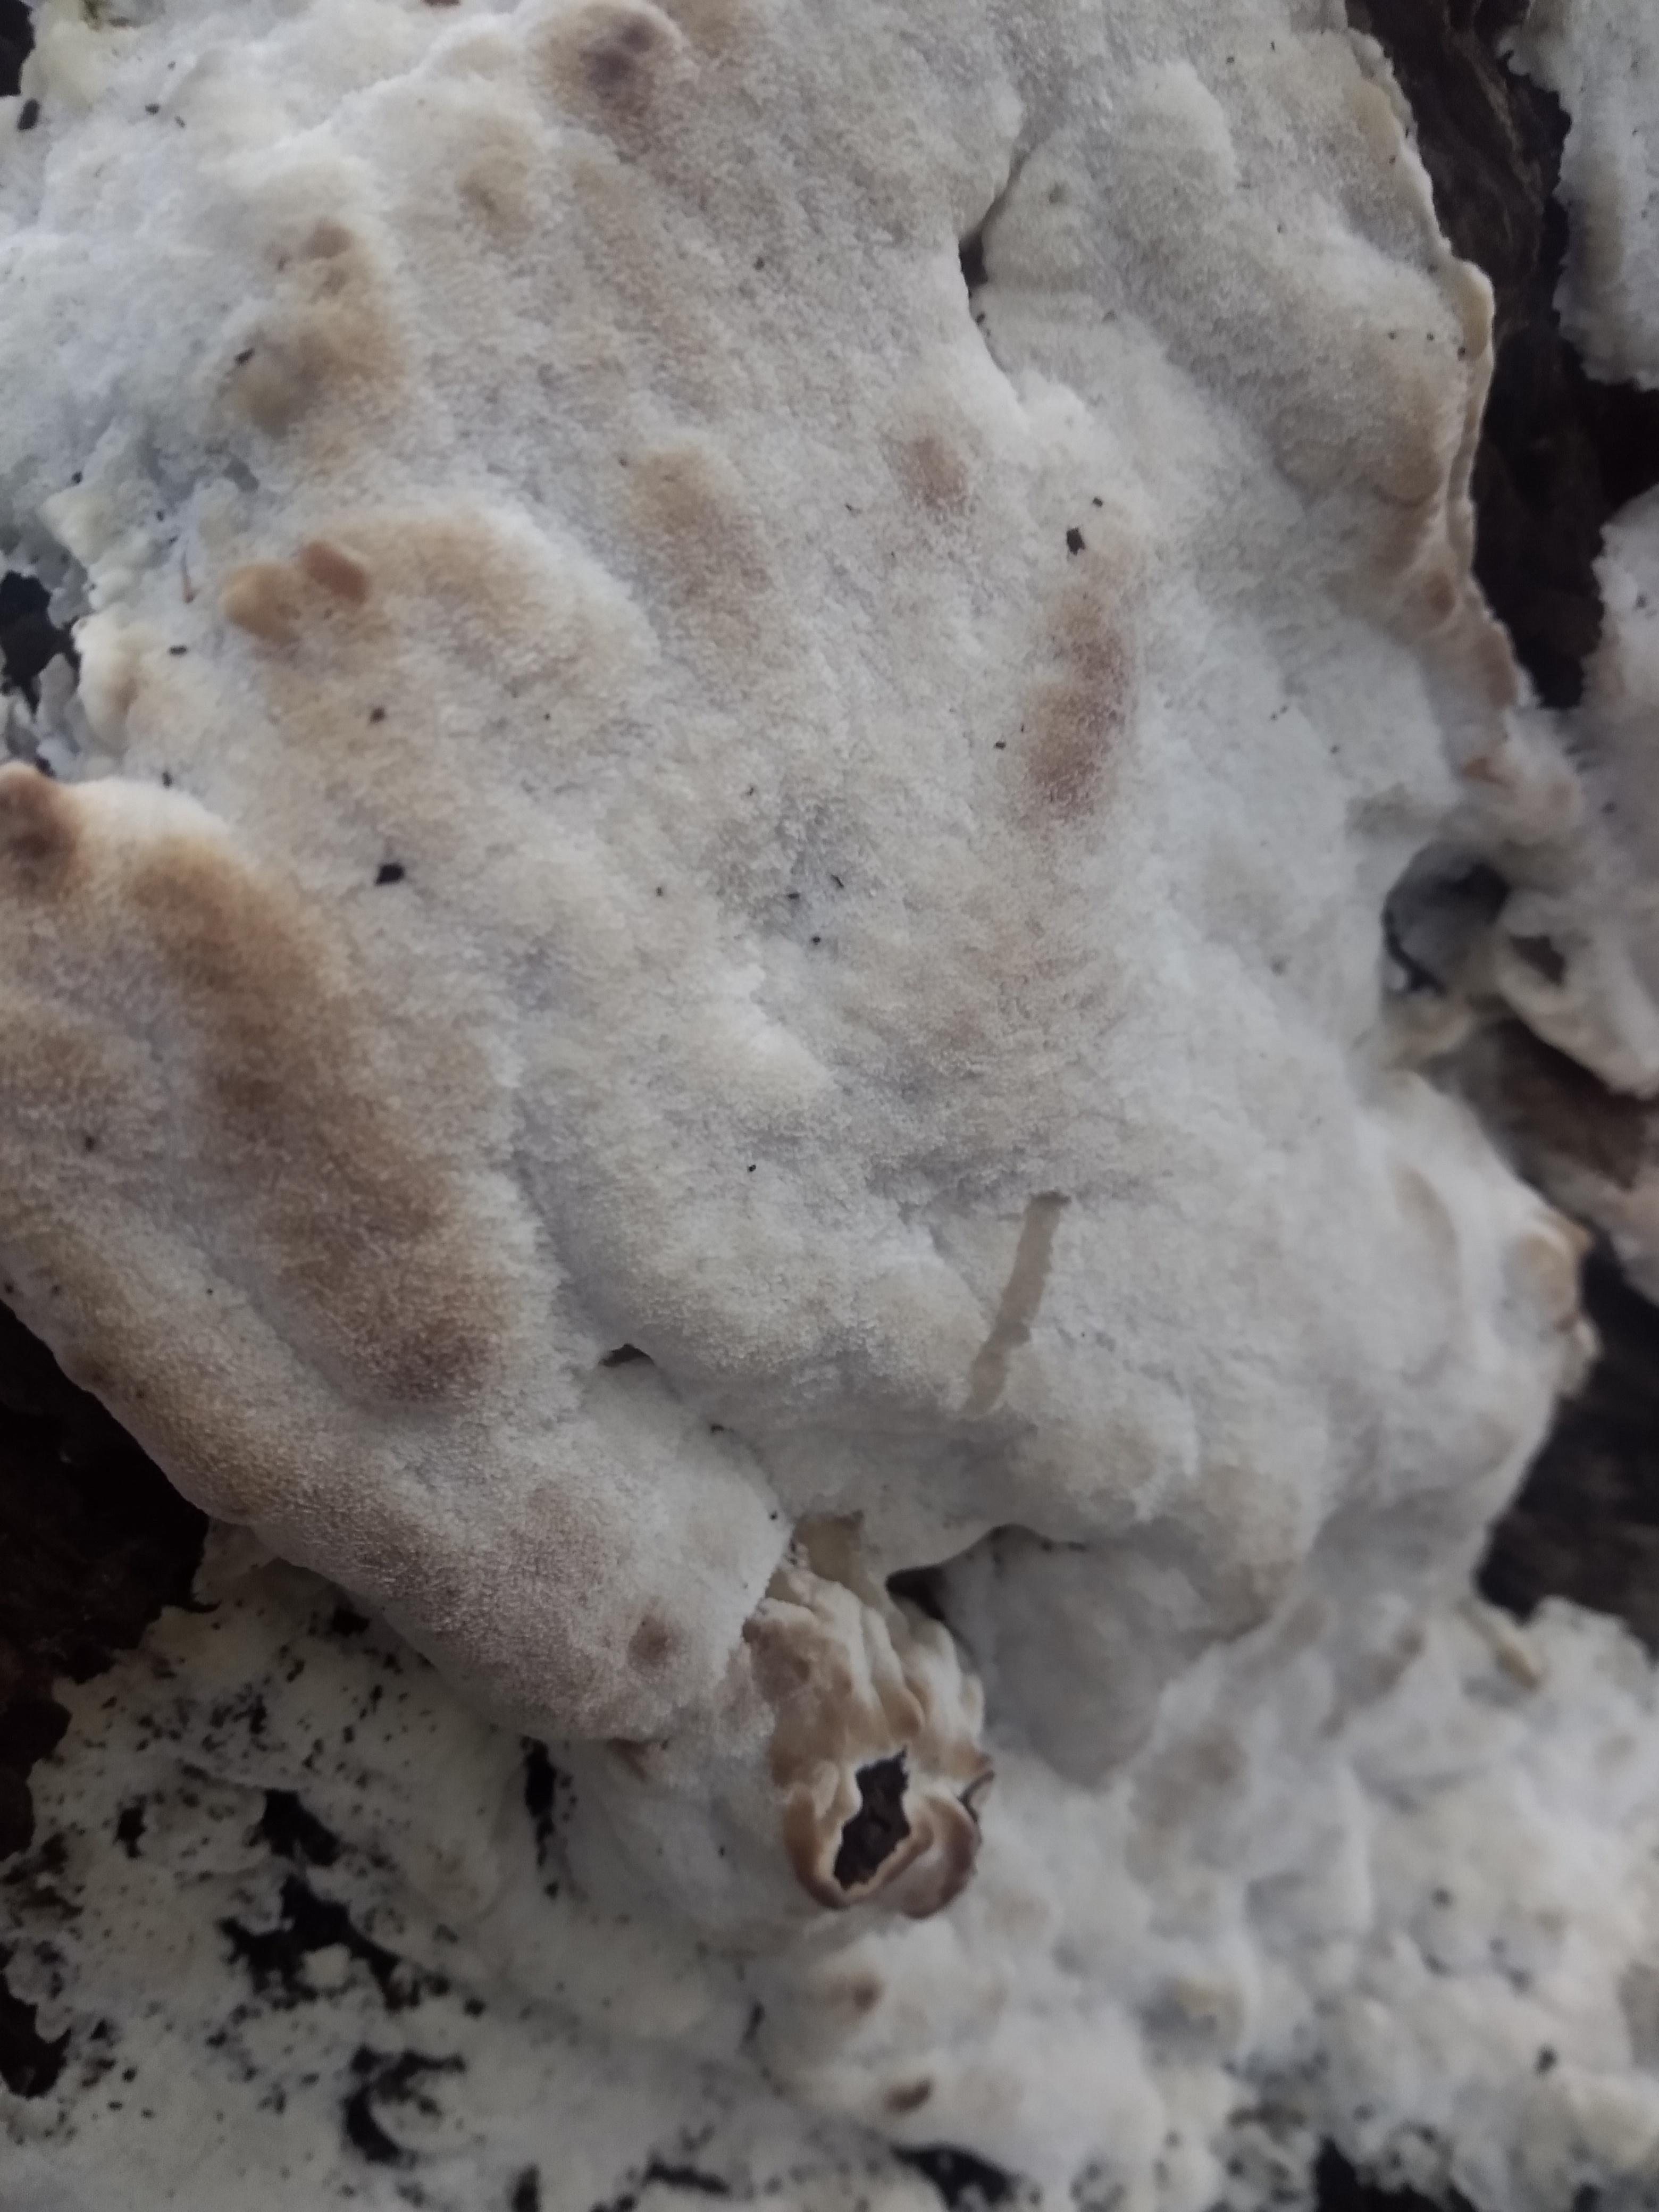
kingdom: Fungi
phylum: Basidiomycota
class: Agaricomycetes
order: Polyporales
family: Meruliaceae
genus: Physisporinus
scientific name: Physisporinus
